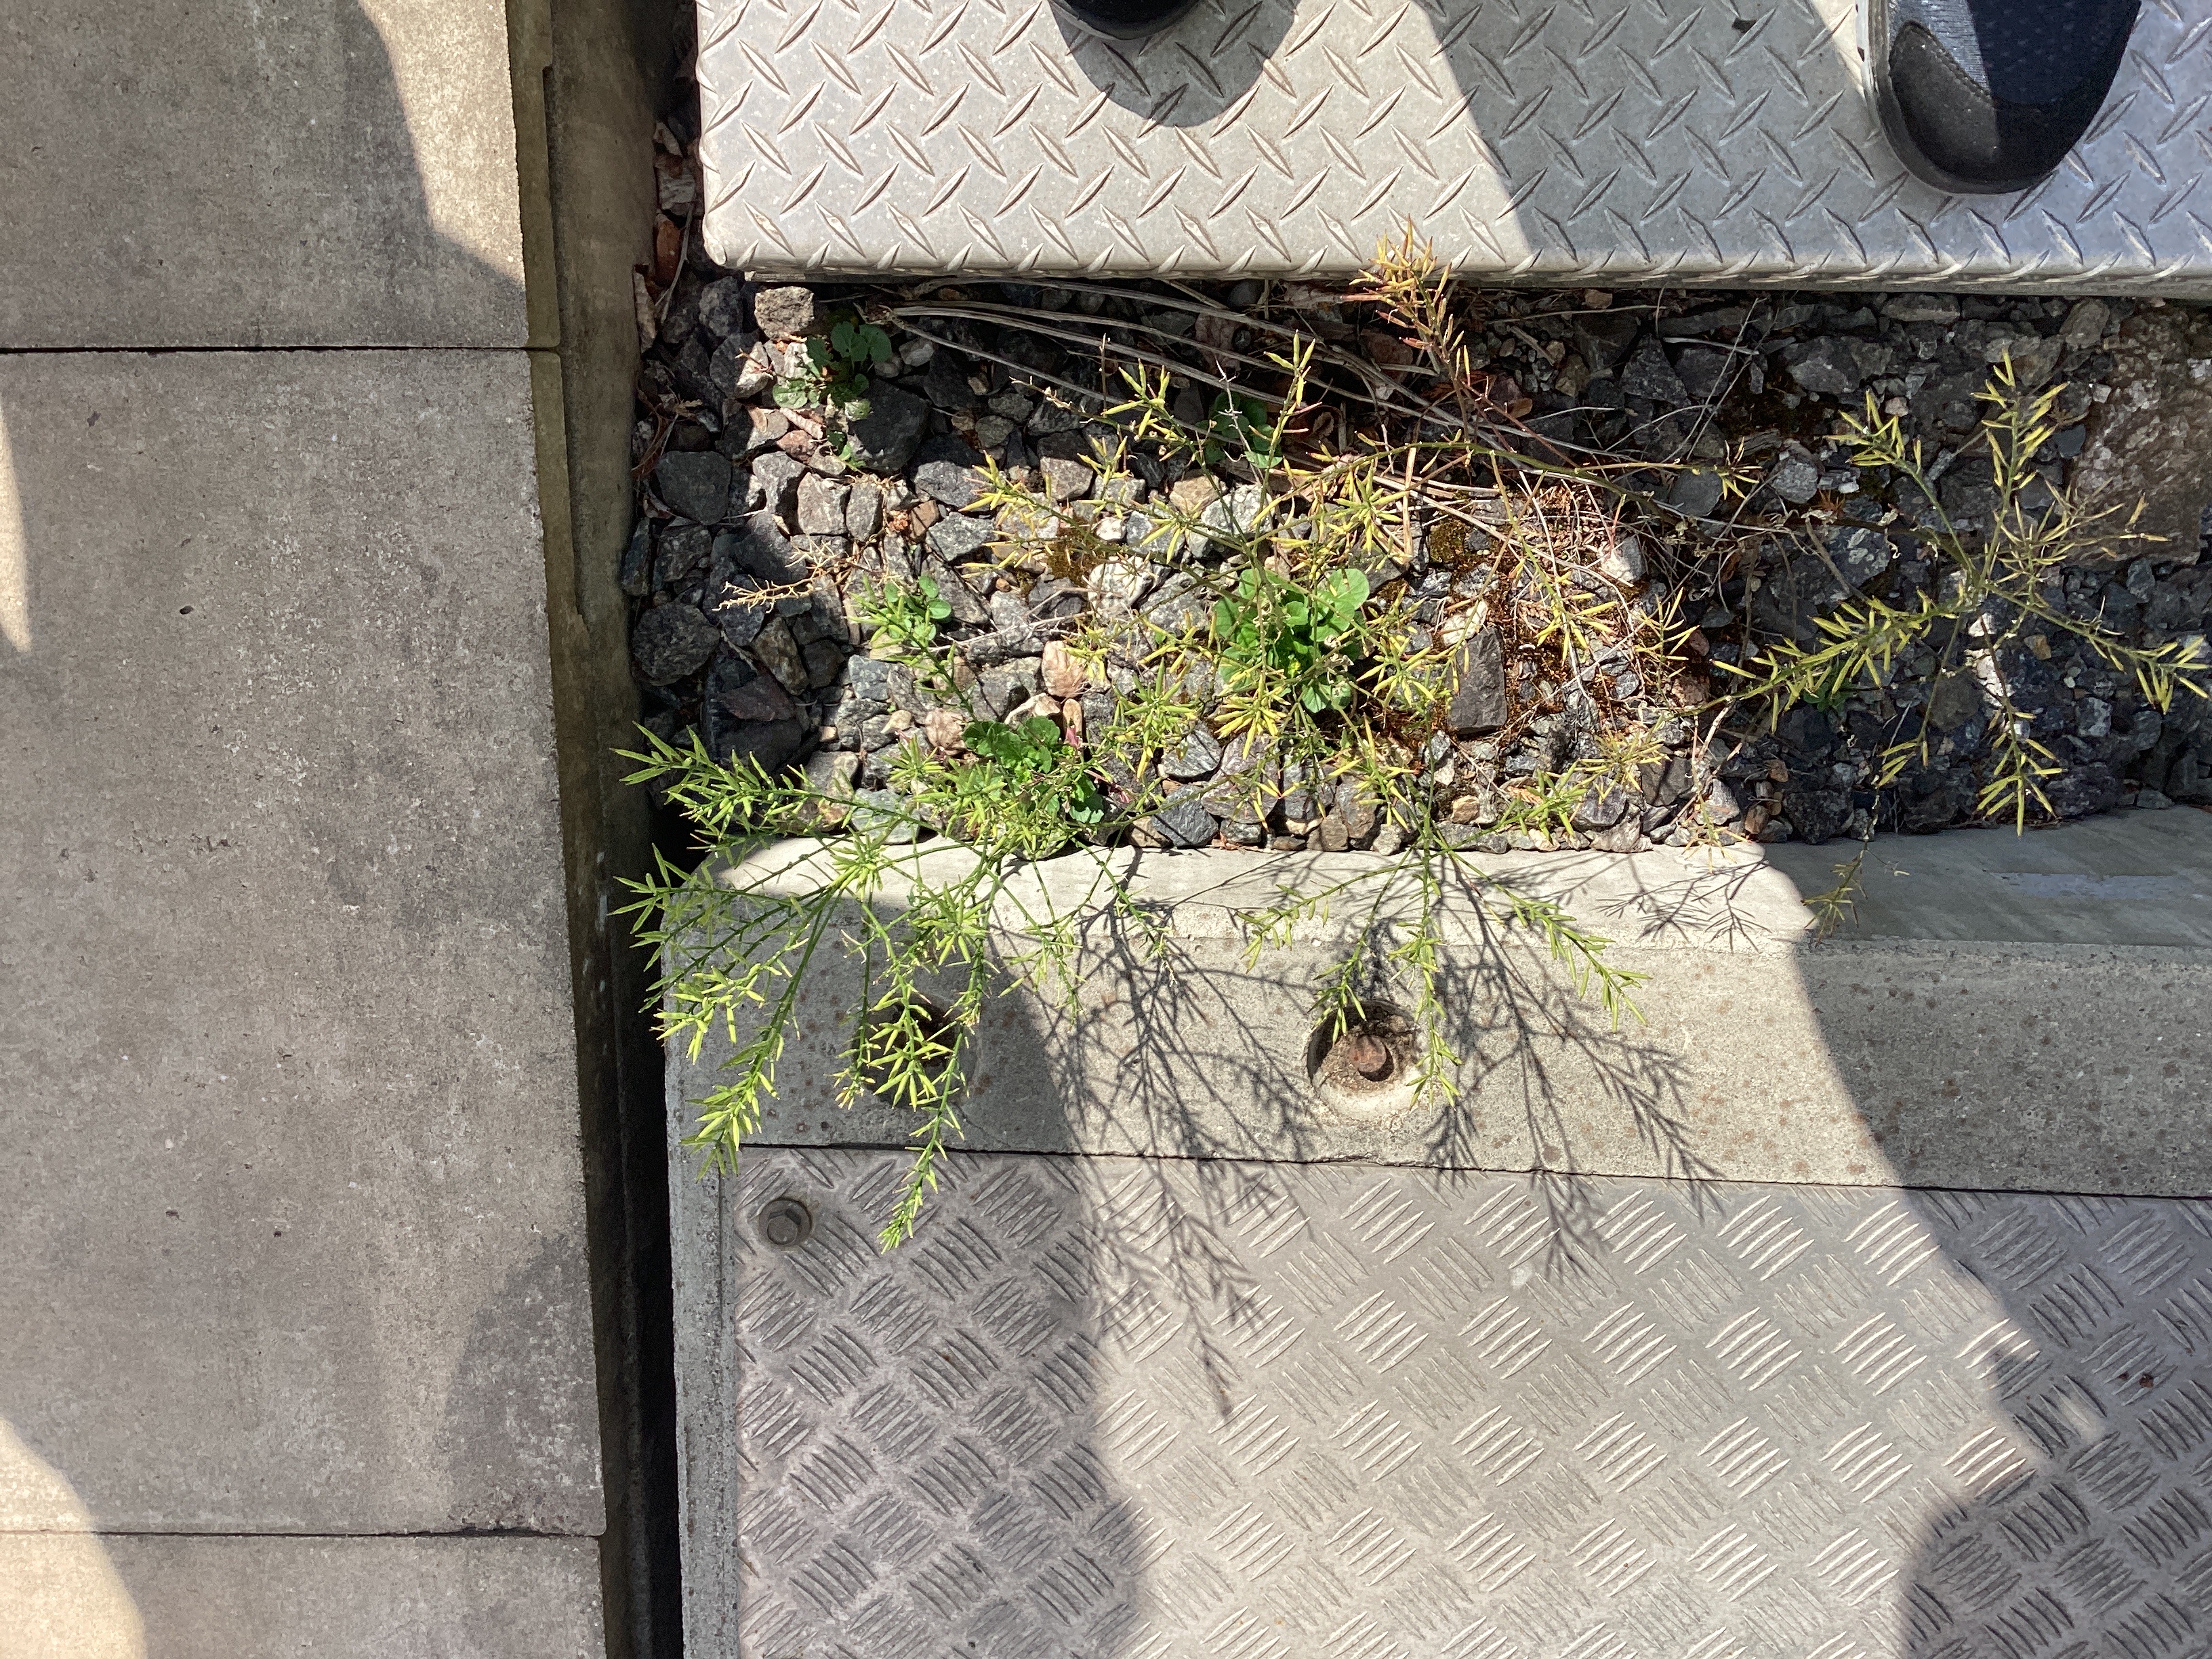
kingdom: Plantae
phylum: Tracheophyta
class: Magnoliopsida
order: Brassicales
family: Brassicaceae
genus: Barbarea
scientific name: Barbarea vulgaris
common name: vinterkarse
